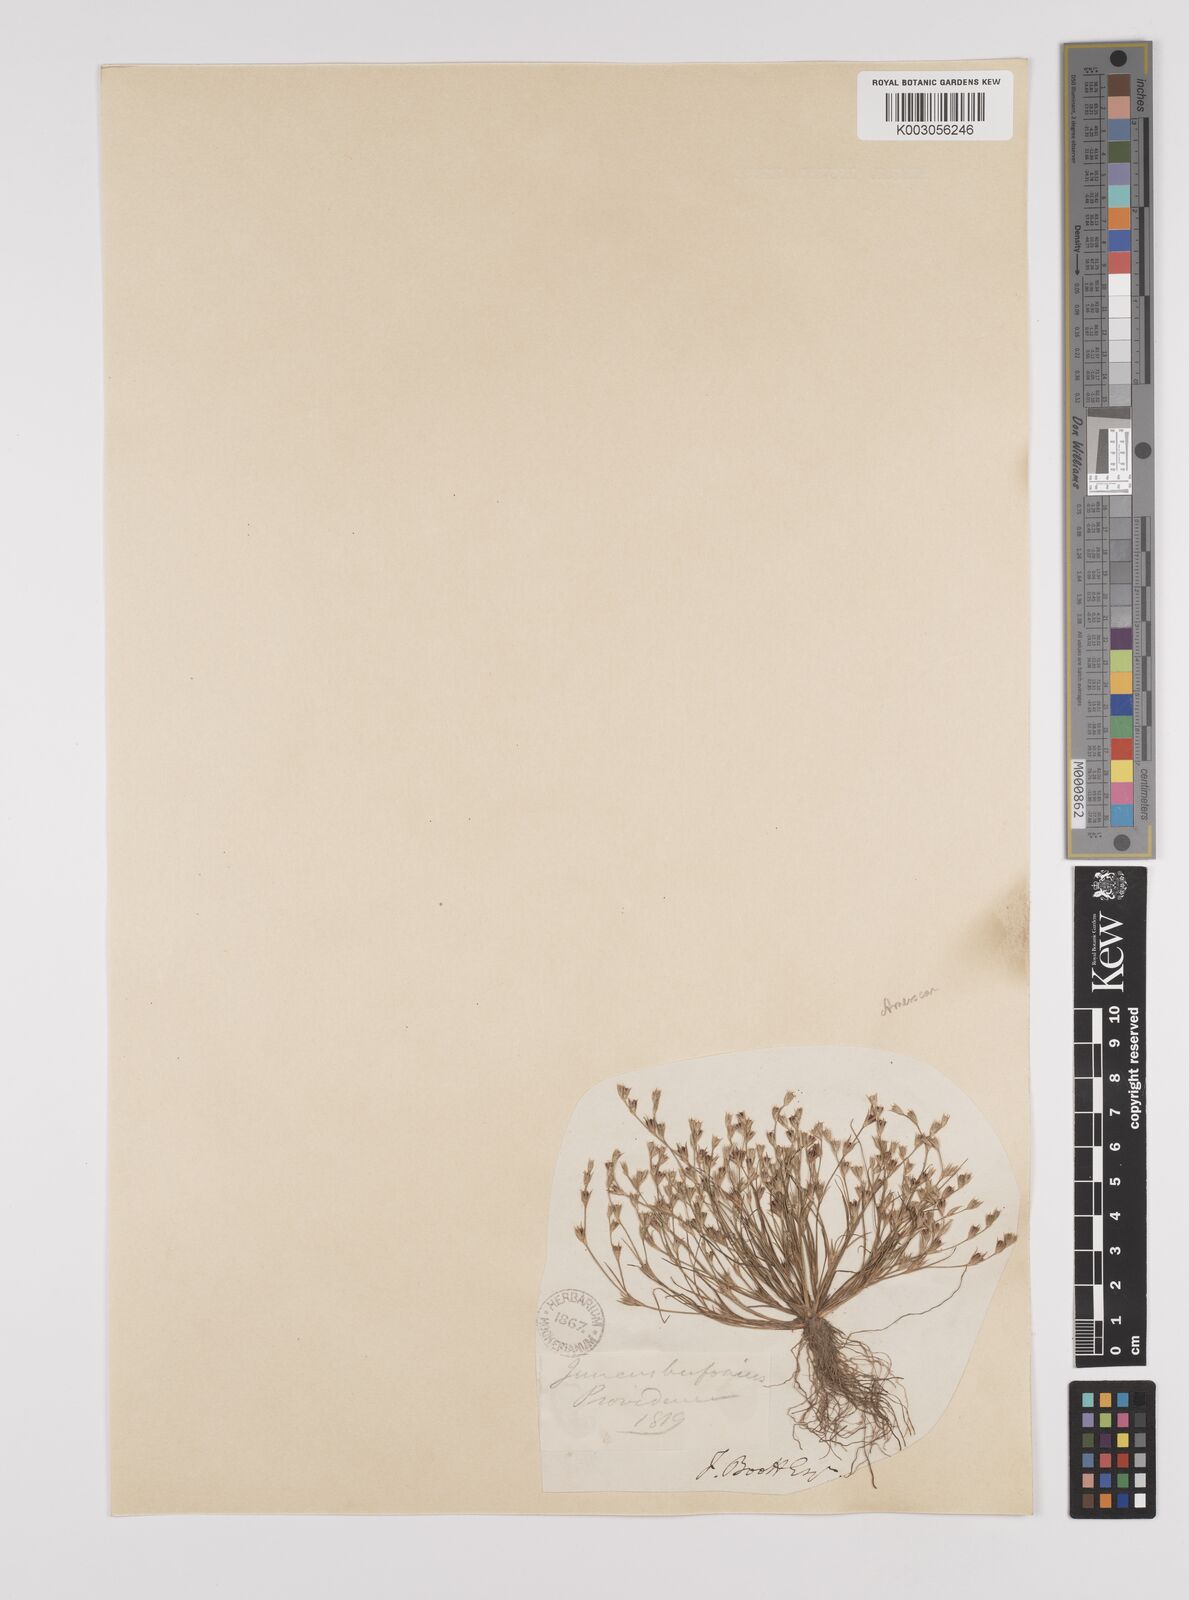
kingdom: Plantae
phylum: Tracheophyta
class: Liliopsida
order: Poales
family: Juncaceae
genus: Juncus
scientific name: Juncus bufonius
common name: Toad rush
